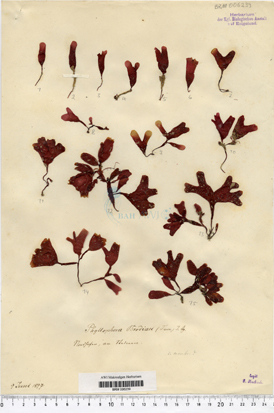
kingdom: Plantae
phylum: Rhodophyta
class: Florideophyceae
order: Gigartinales
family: Phyllophoraceae
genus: Coccotylus
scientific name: Coccotylus
